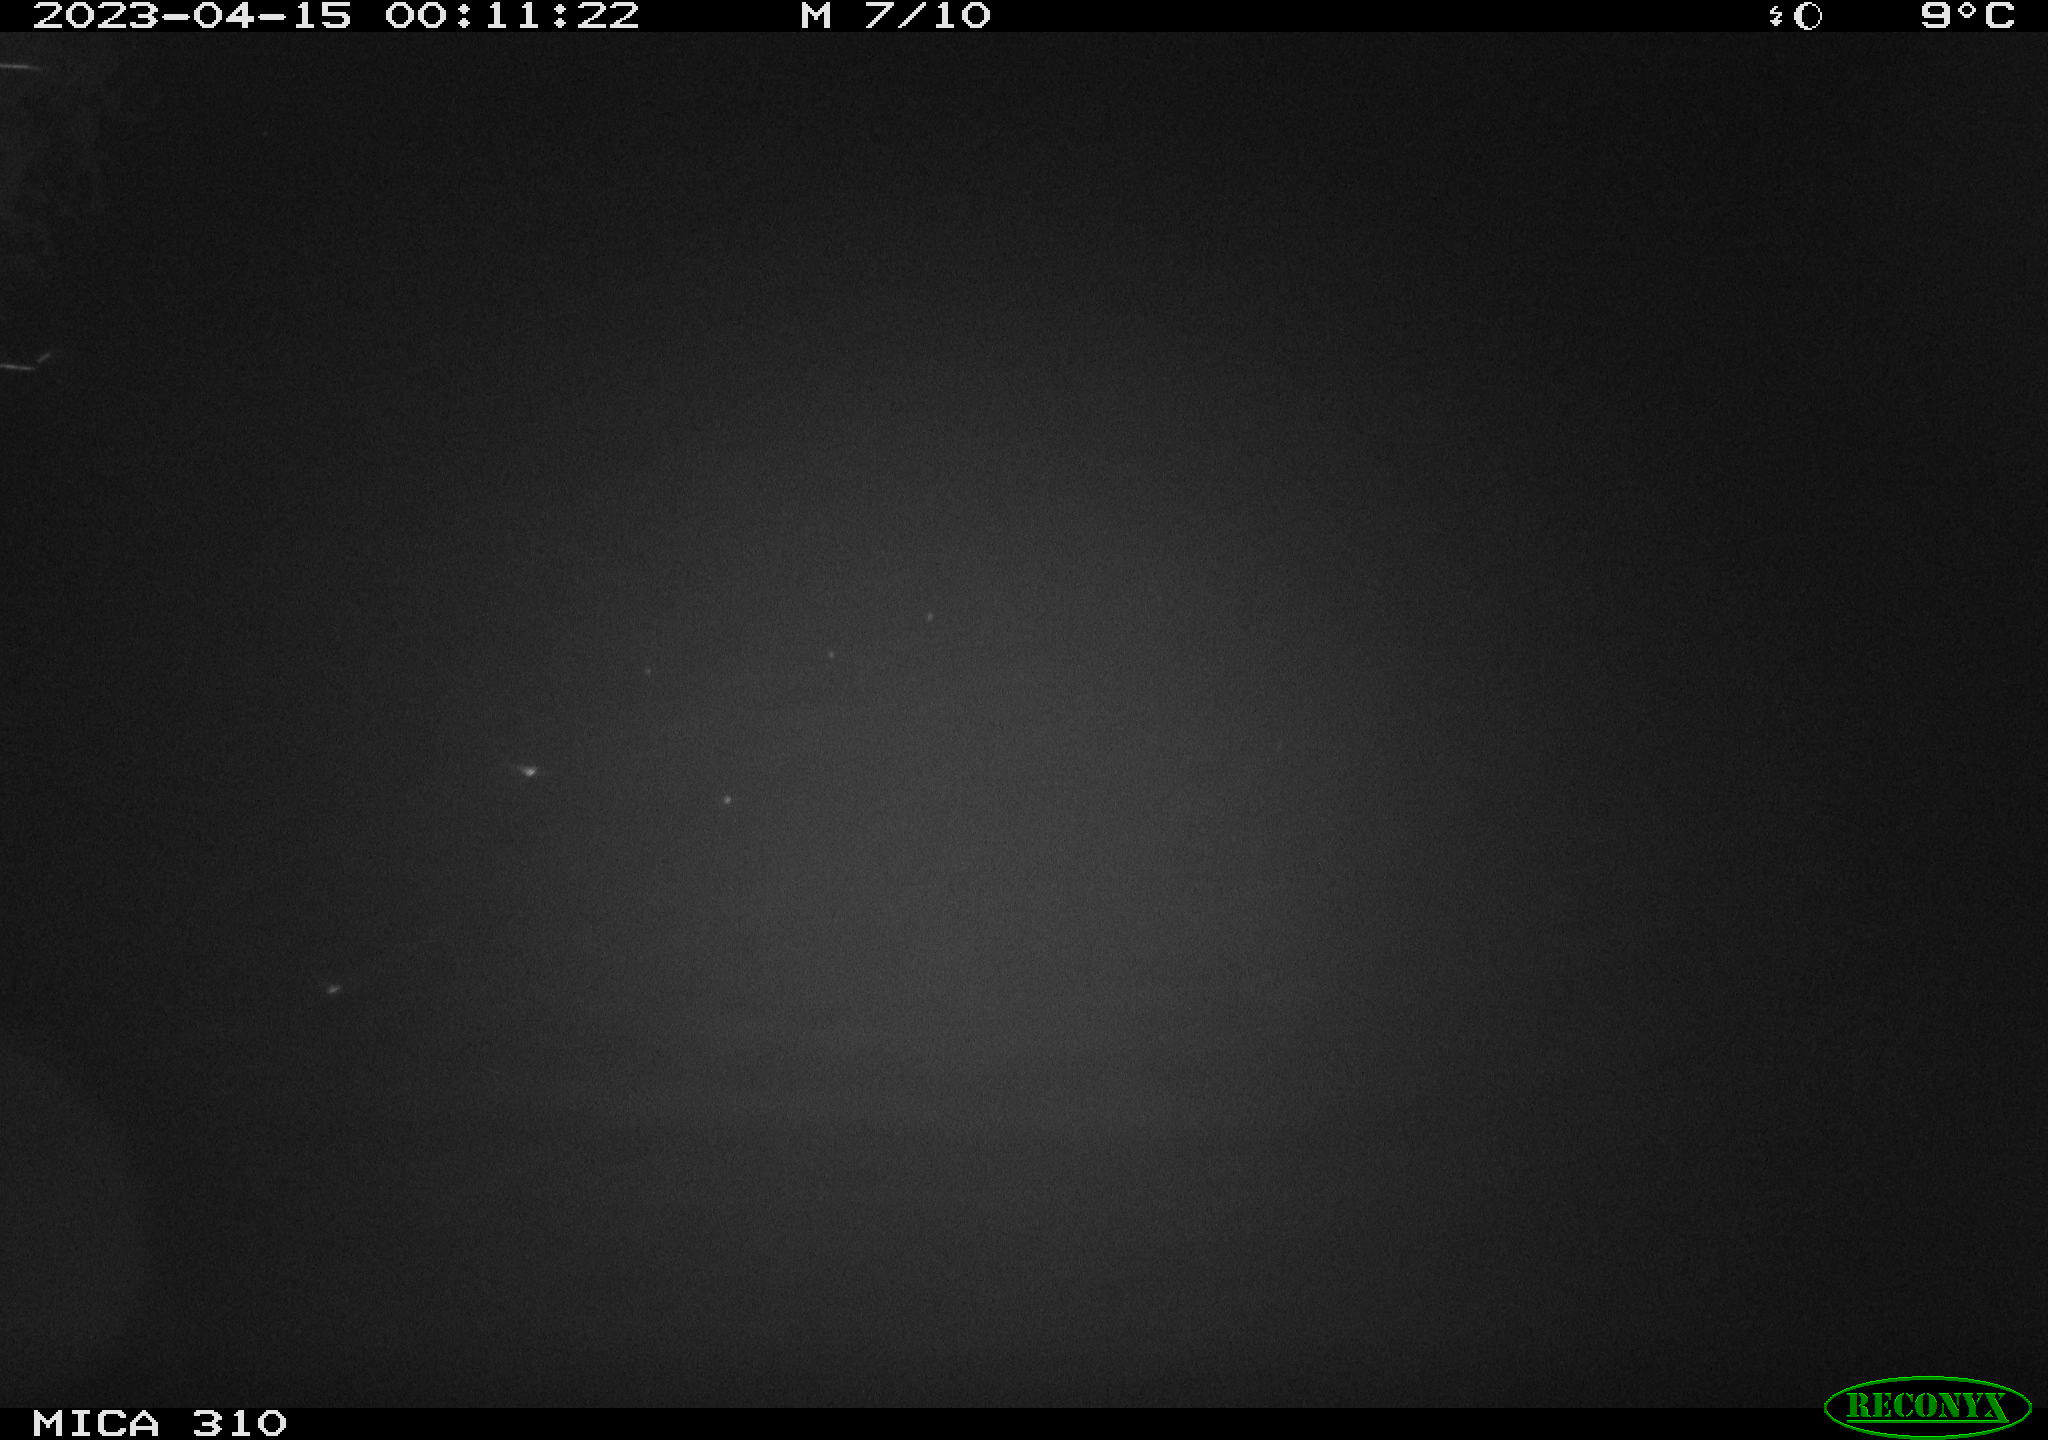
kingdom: Animalia
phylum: Chordata
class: Aves
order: Anseriformes
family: Anatidae
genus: Anas
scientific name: Anas
